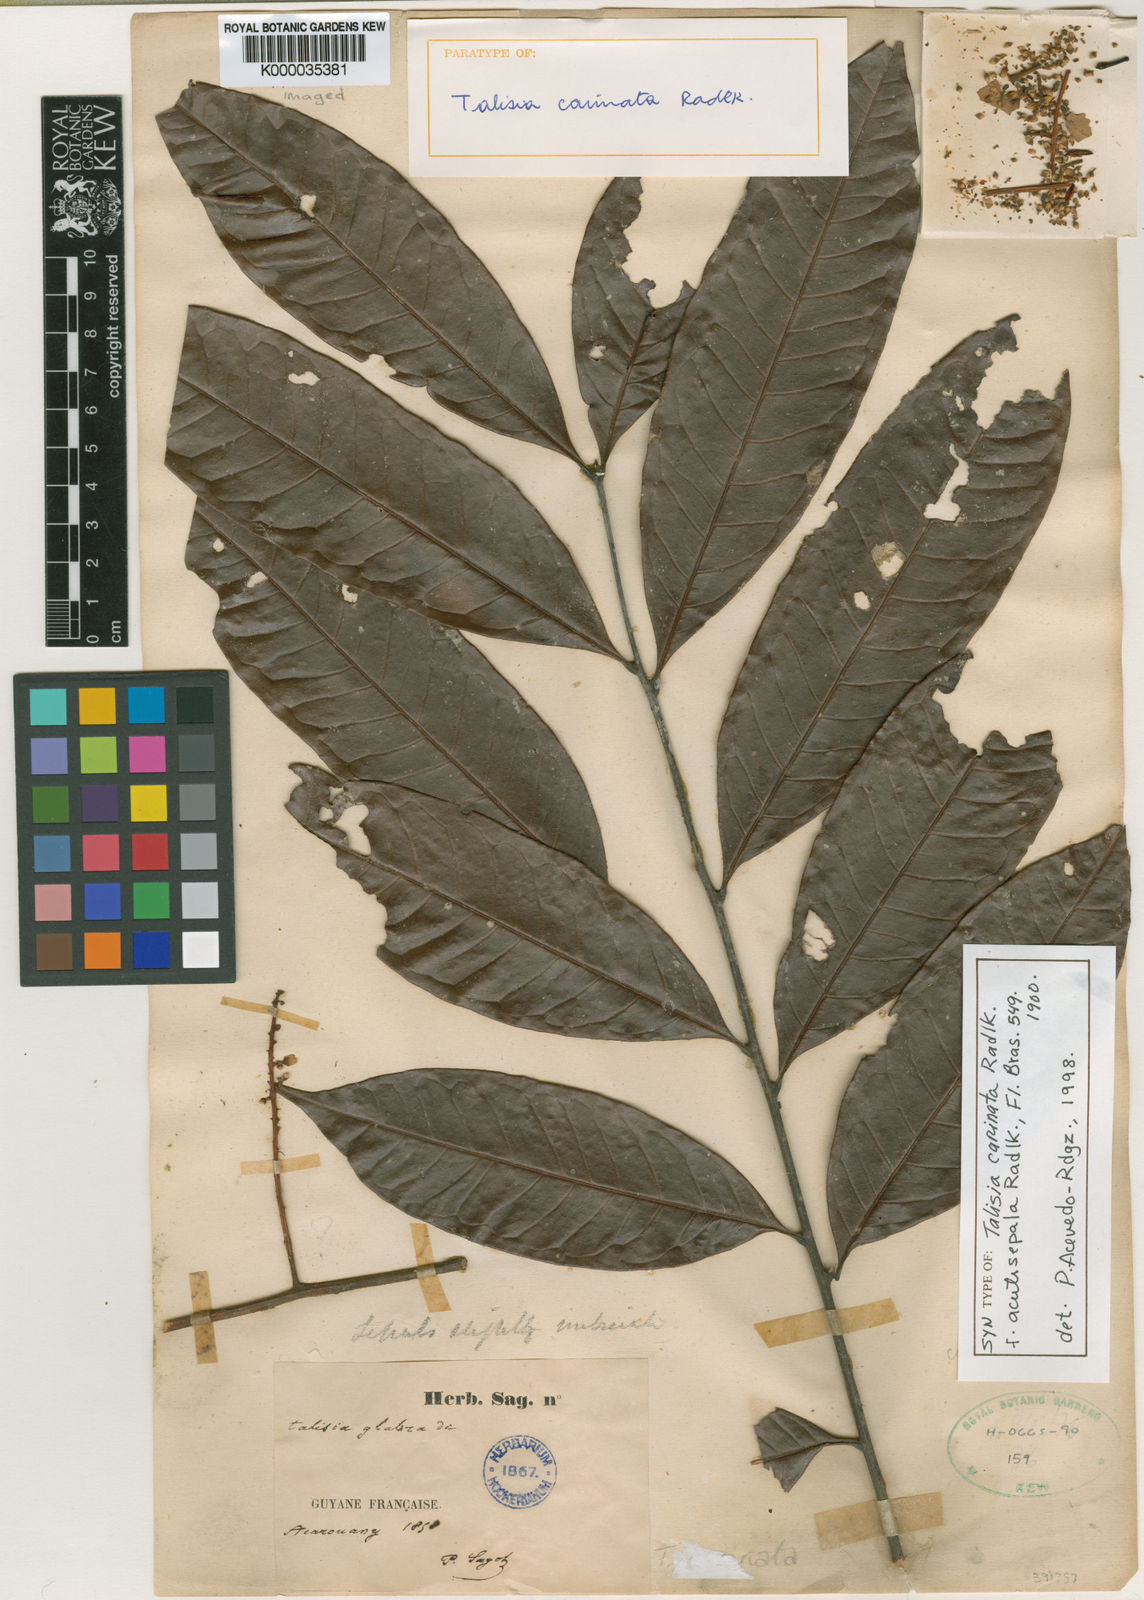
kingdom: Plantae
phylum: Tracheophyta
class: Magnoliopsida
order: Sapindales
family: Sapindaceae
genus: Talisia
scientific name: Talisia sylvatica
